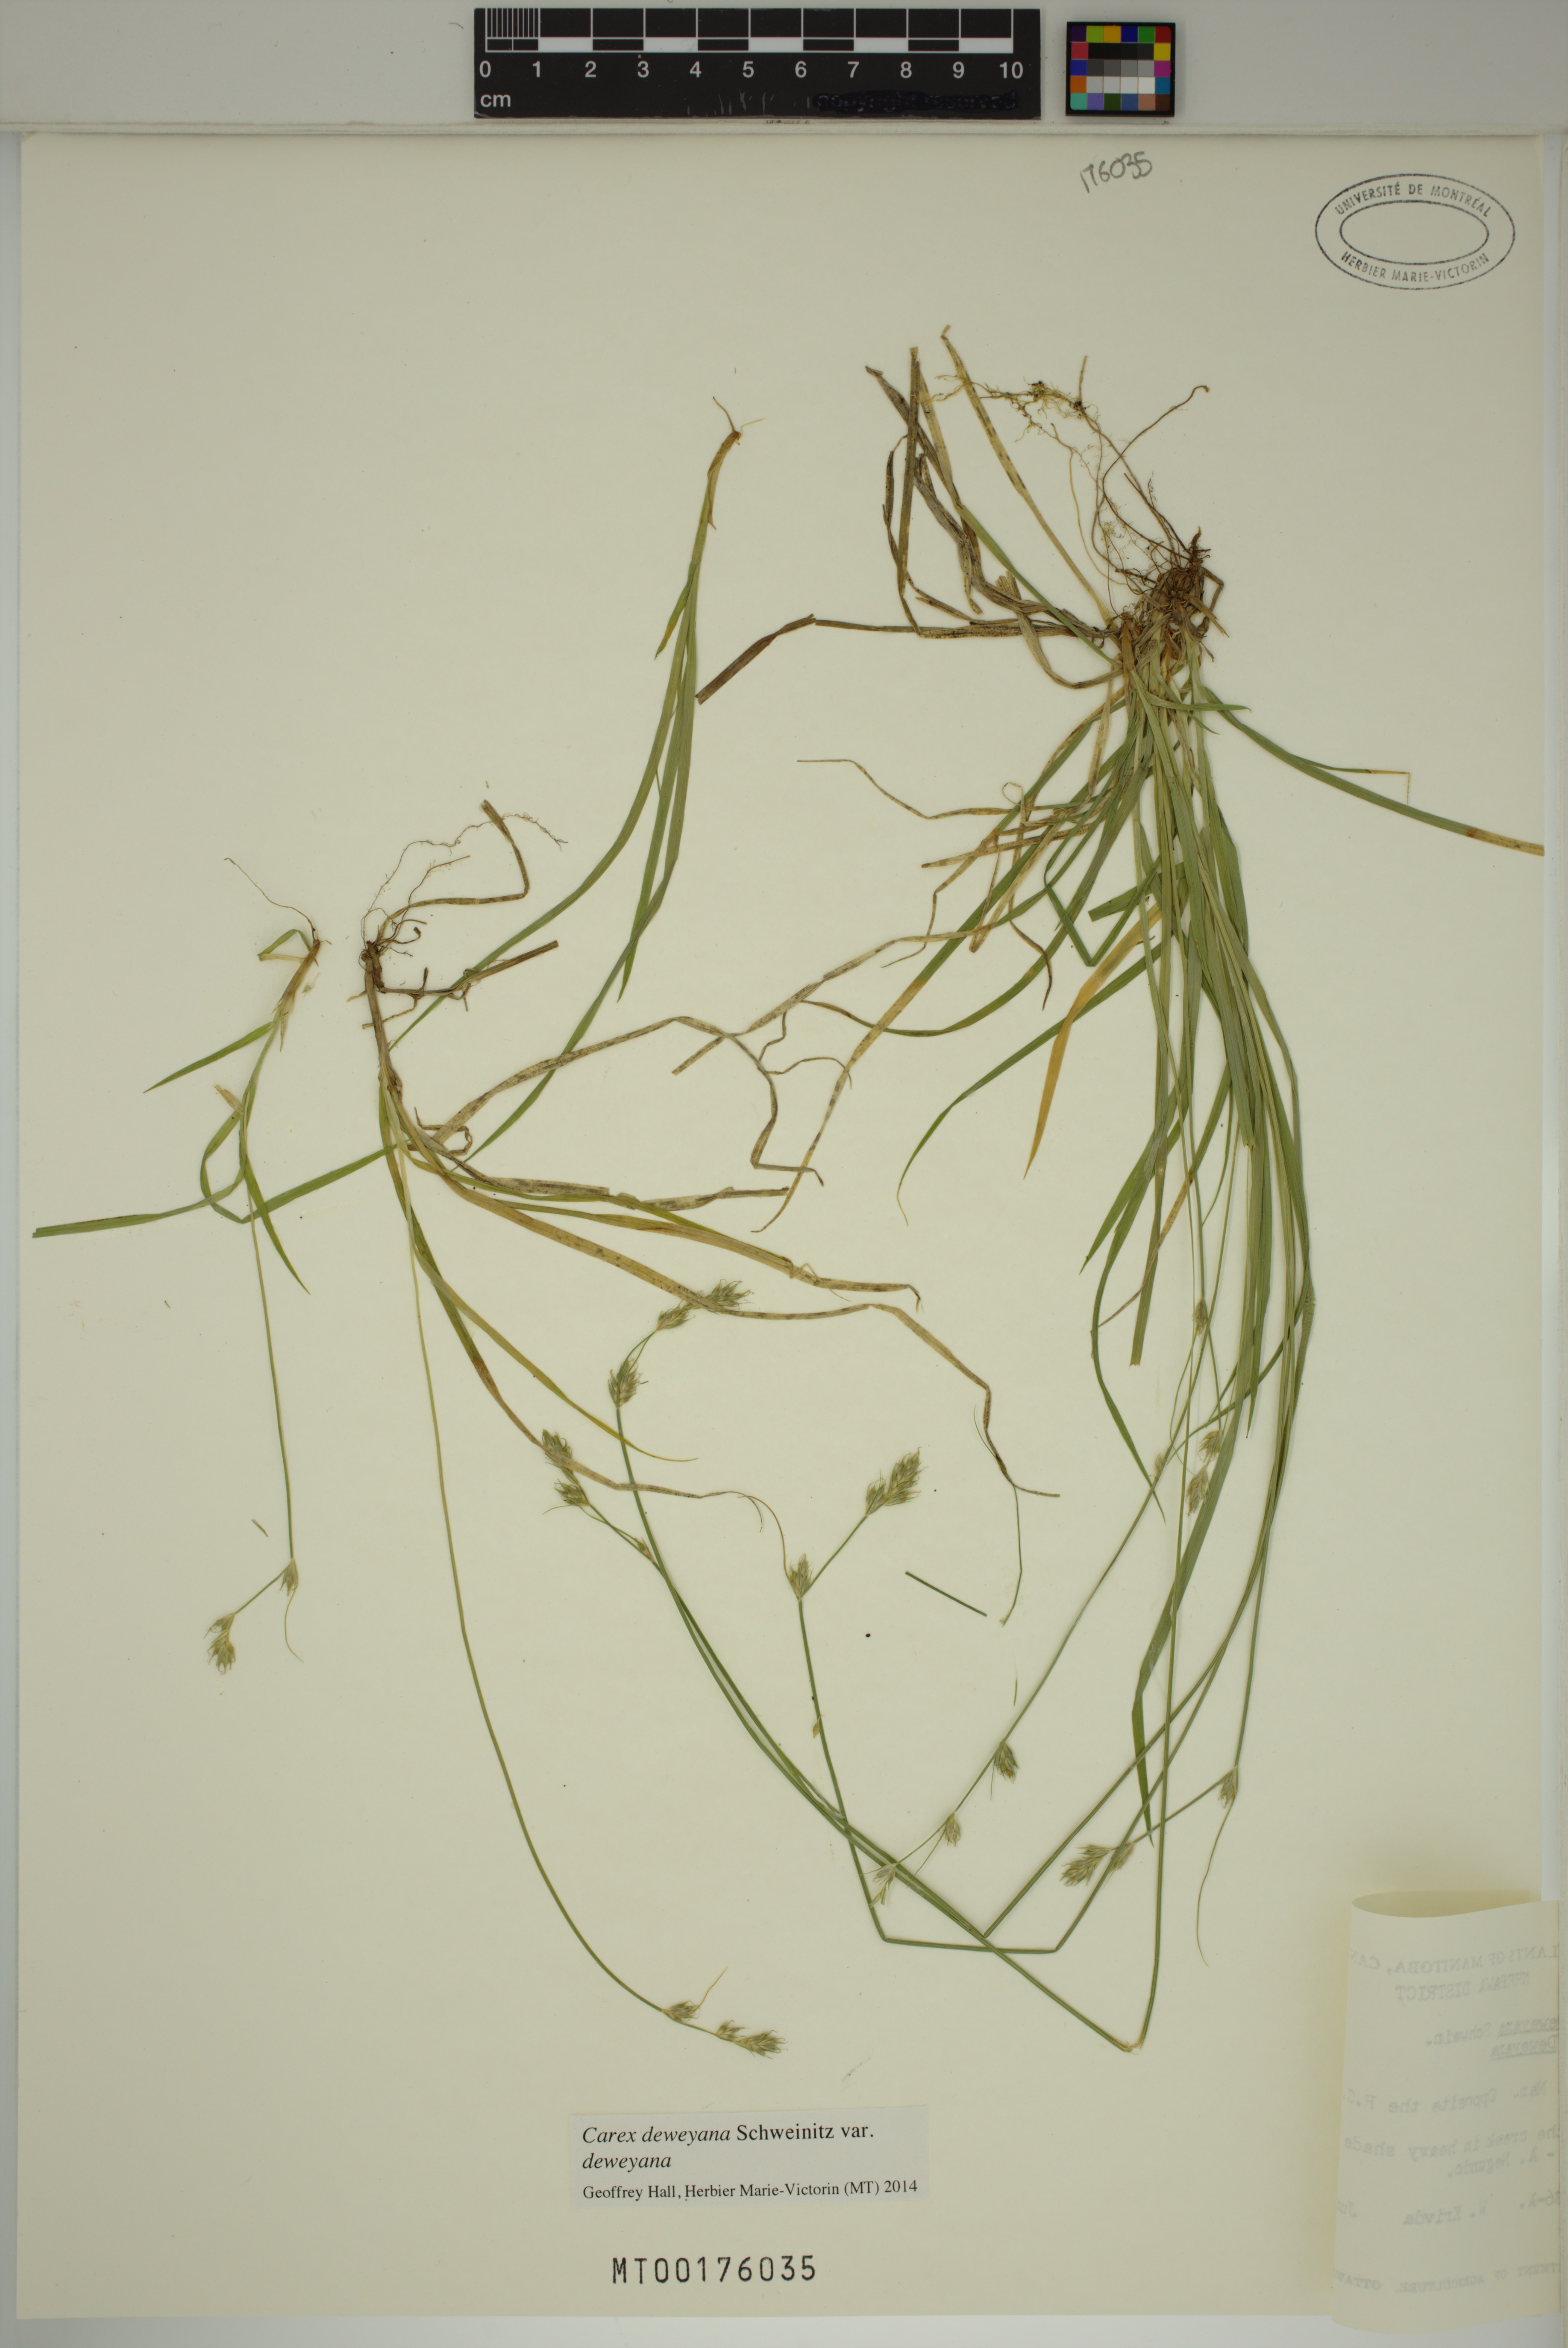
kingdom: Plantae
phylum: Tracheophyta
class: Liliopsida
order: Poales
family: Cyperaceae
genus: Carex
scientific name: Carex deweyana
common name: Dewey's sedge
